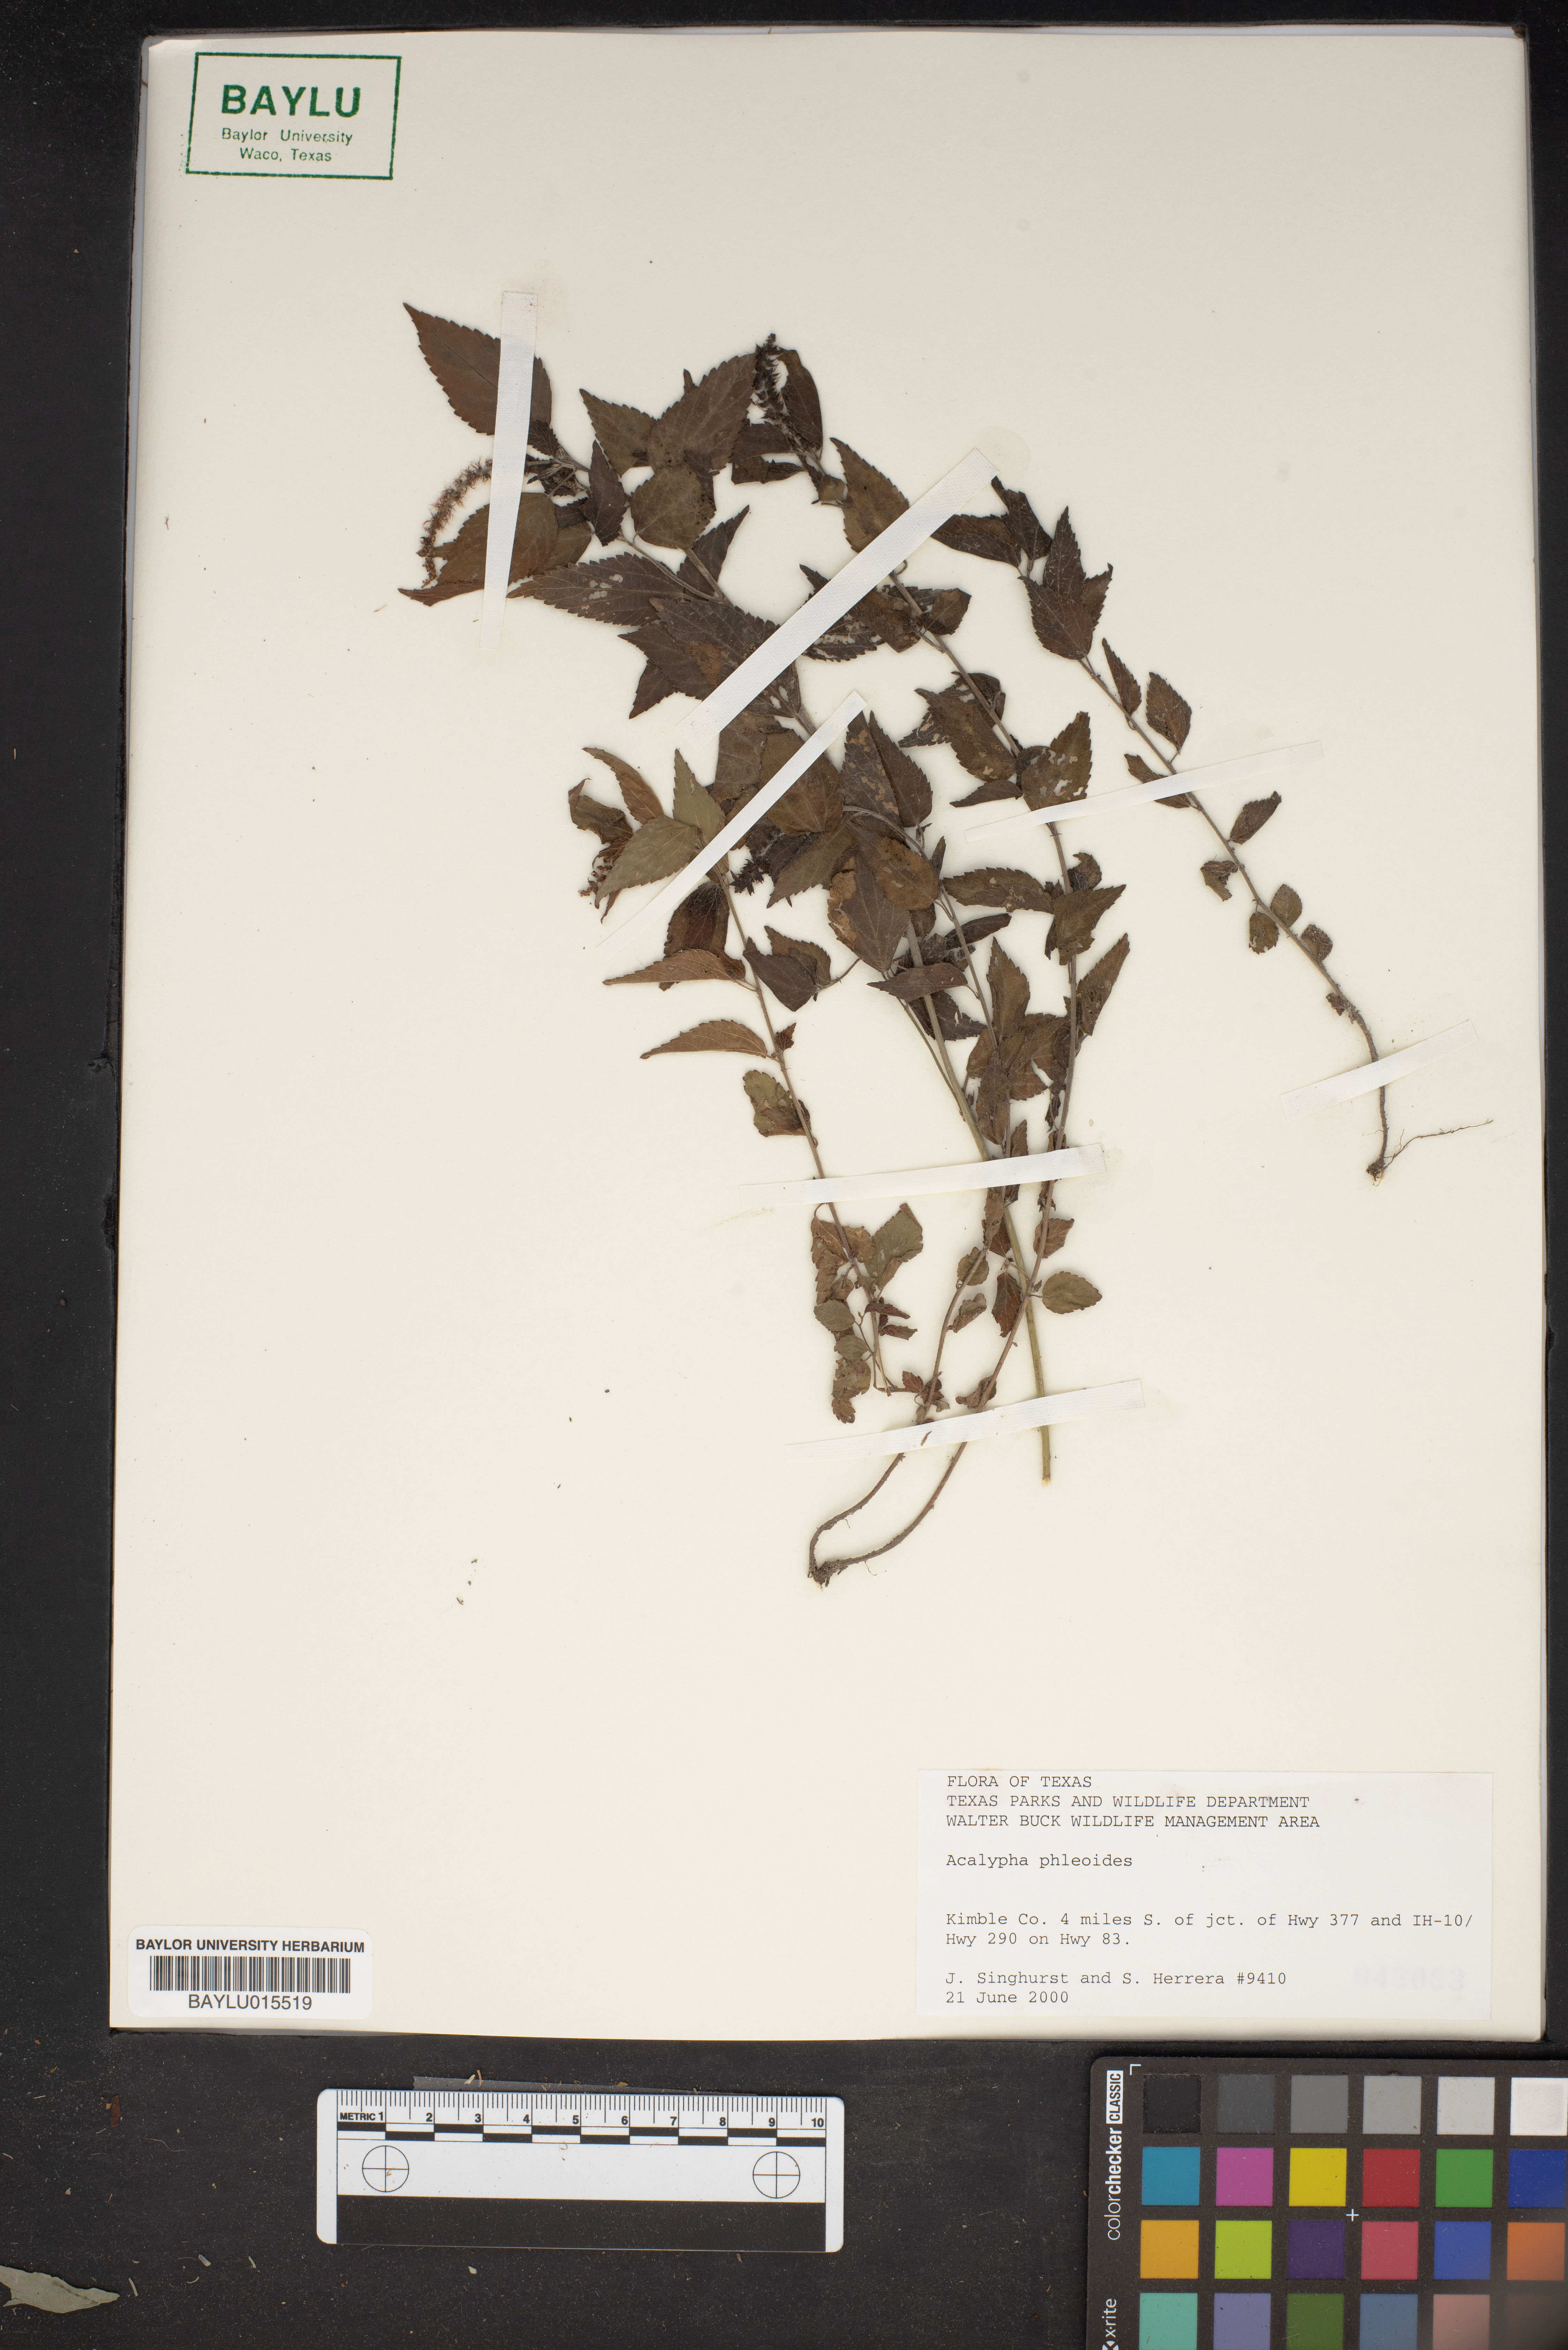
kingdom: Plantae
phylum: Tracheophyta
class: Magnoliopsida
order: Malpighiales
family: Euphorbiaceae
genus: Acalypha
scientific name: Acalypha phleoides
